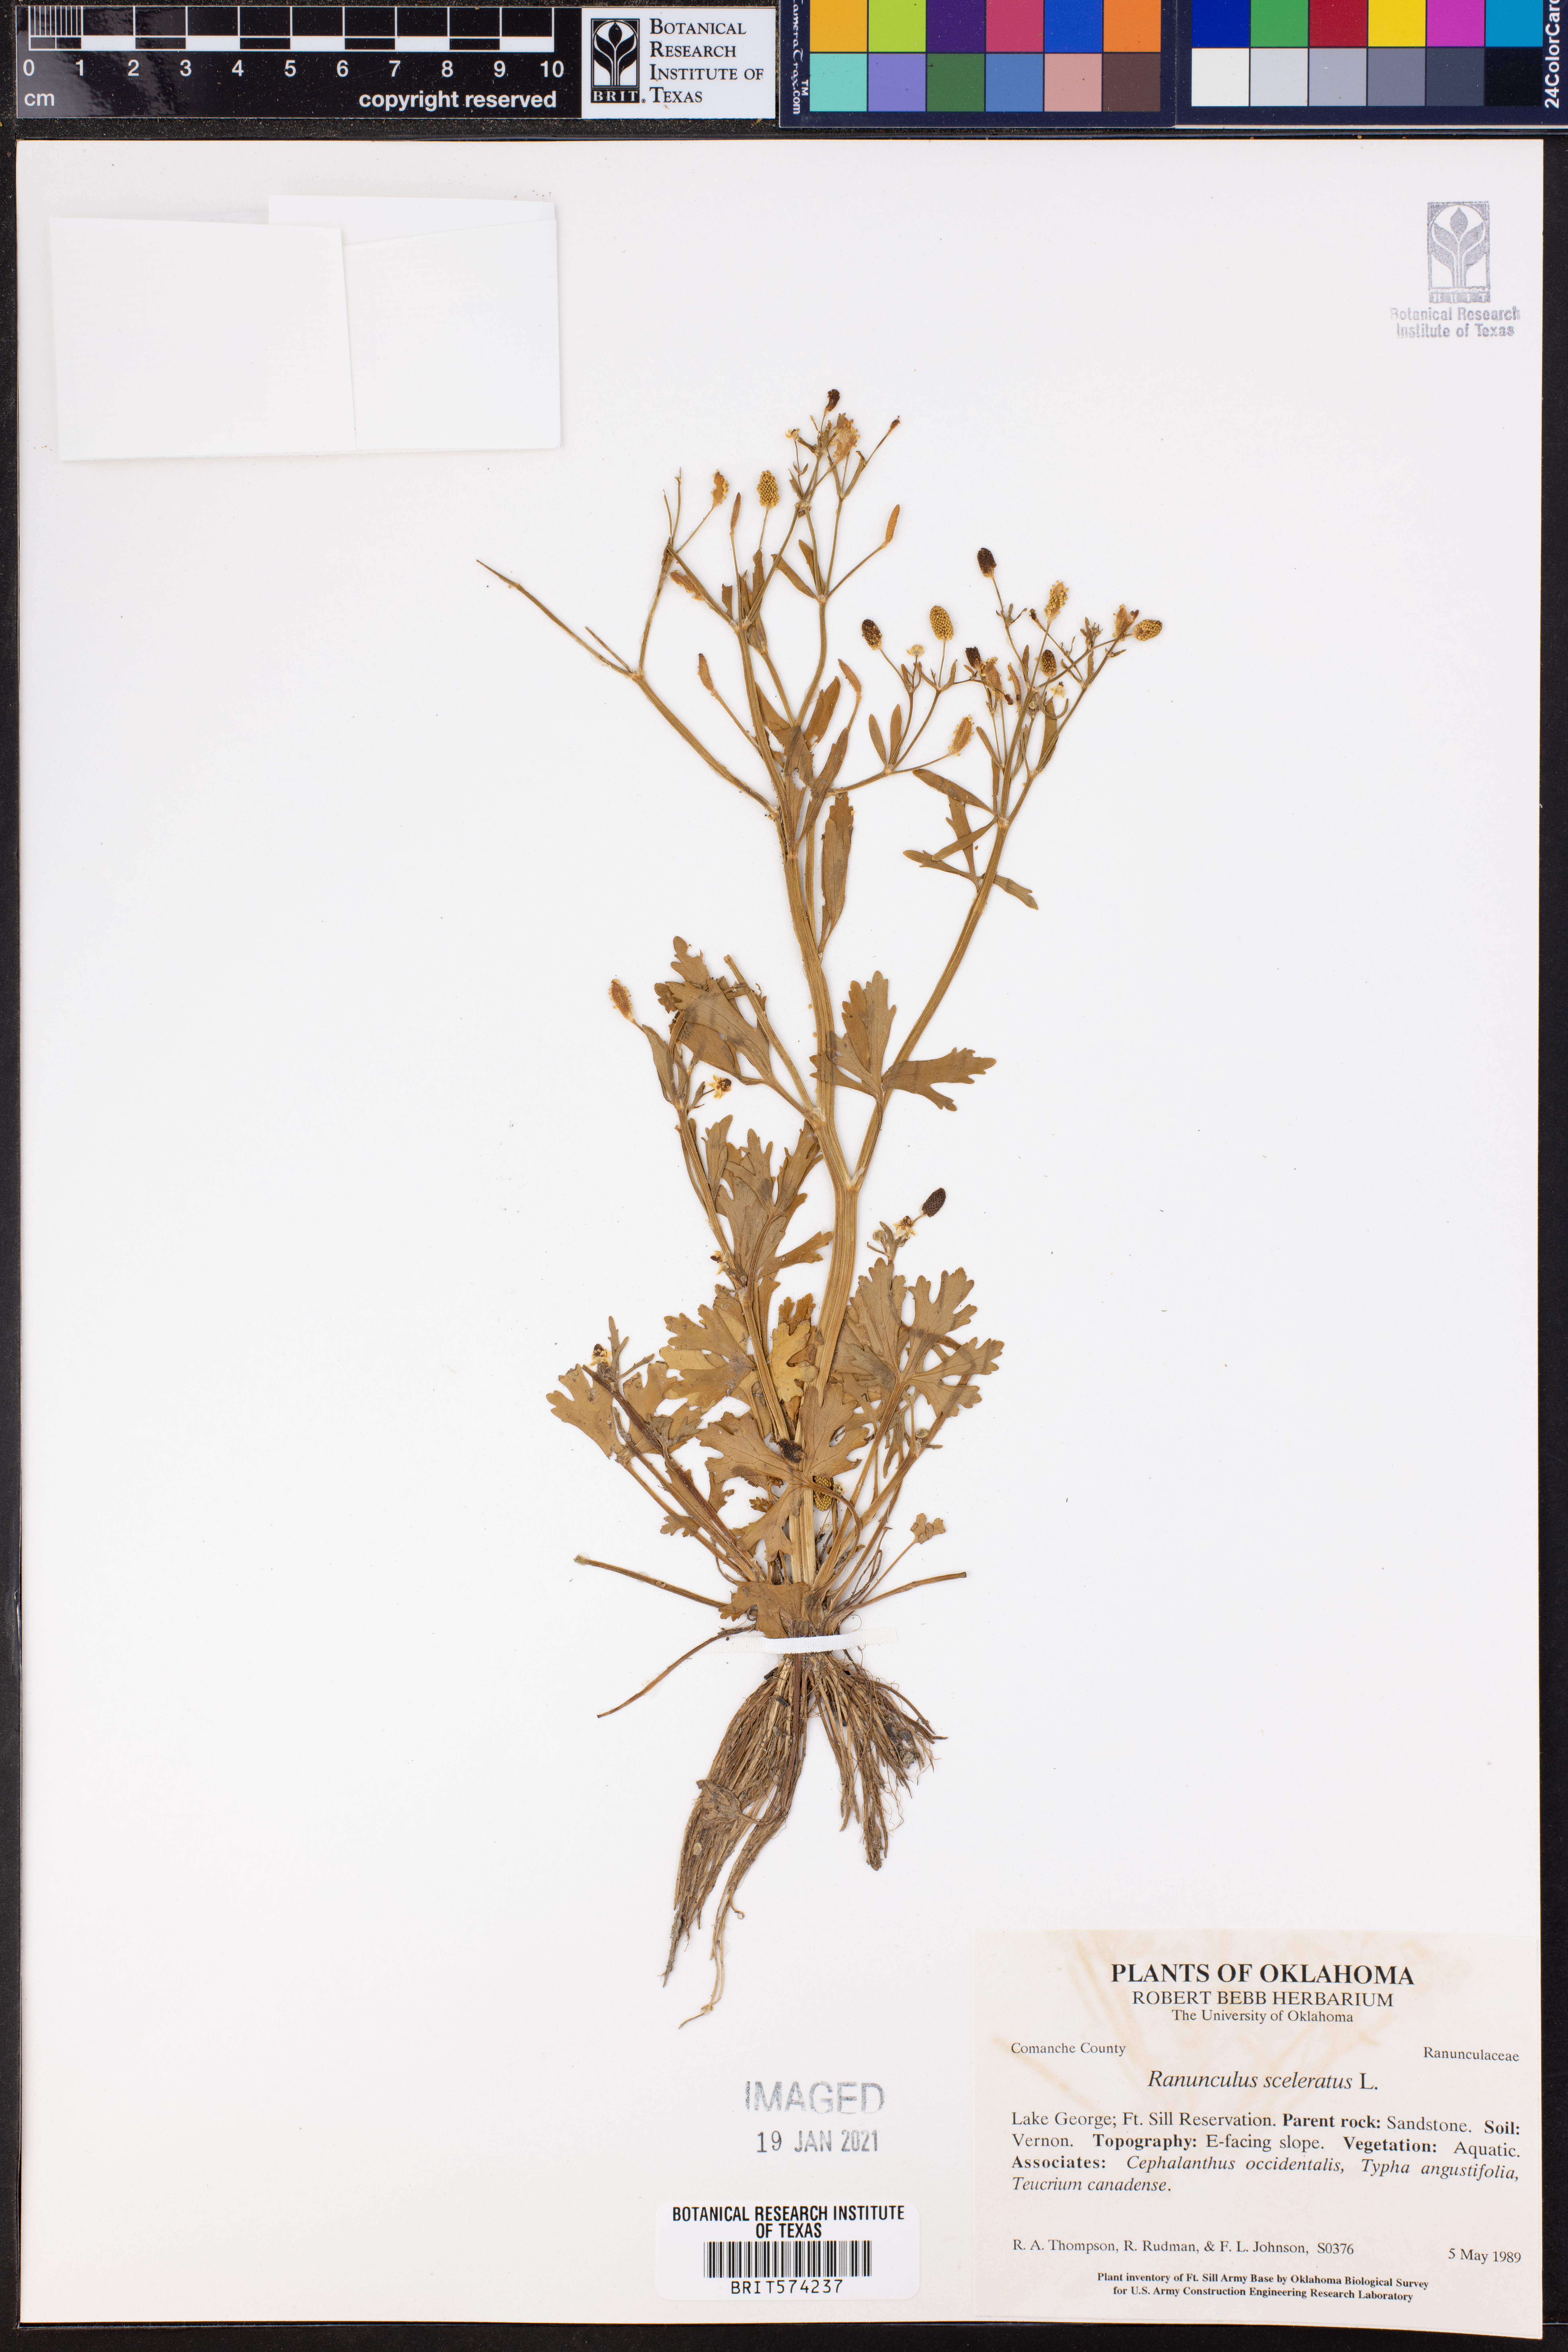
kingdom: Plantae
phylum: Tracheophyta
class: Magnoliopsida
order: Ranunculales
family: Ranunculaceae
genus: Ranunculus
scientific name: Ranunculus sceleratus
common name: Celery-leaved buttercup
